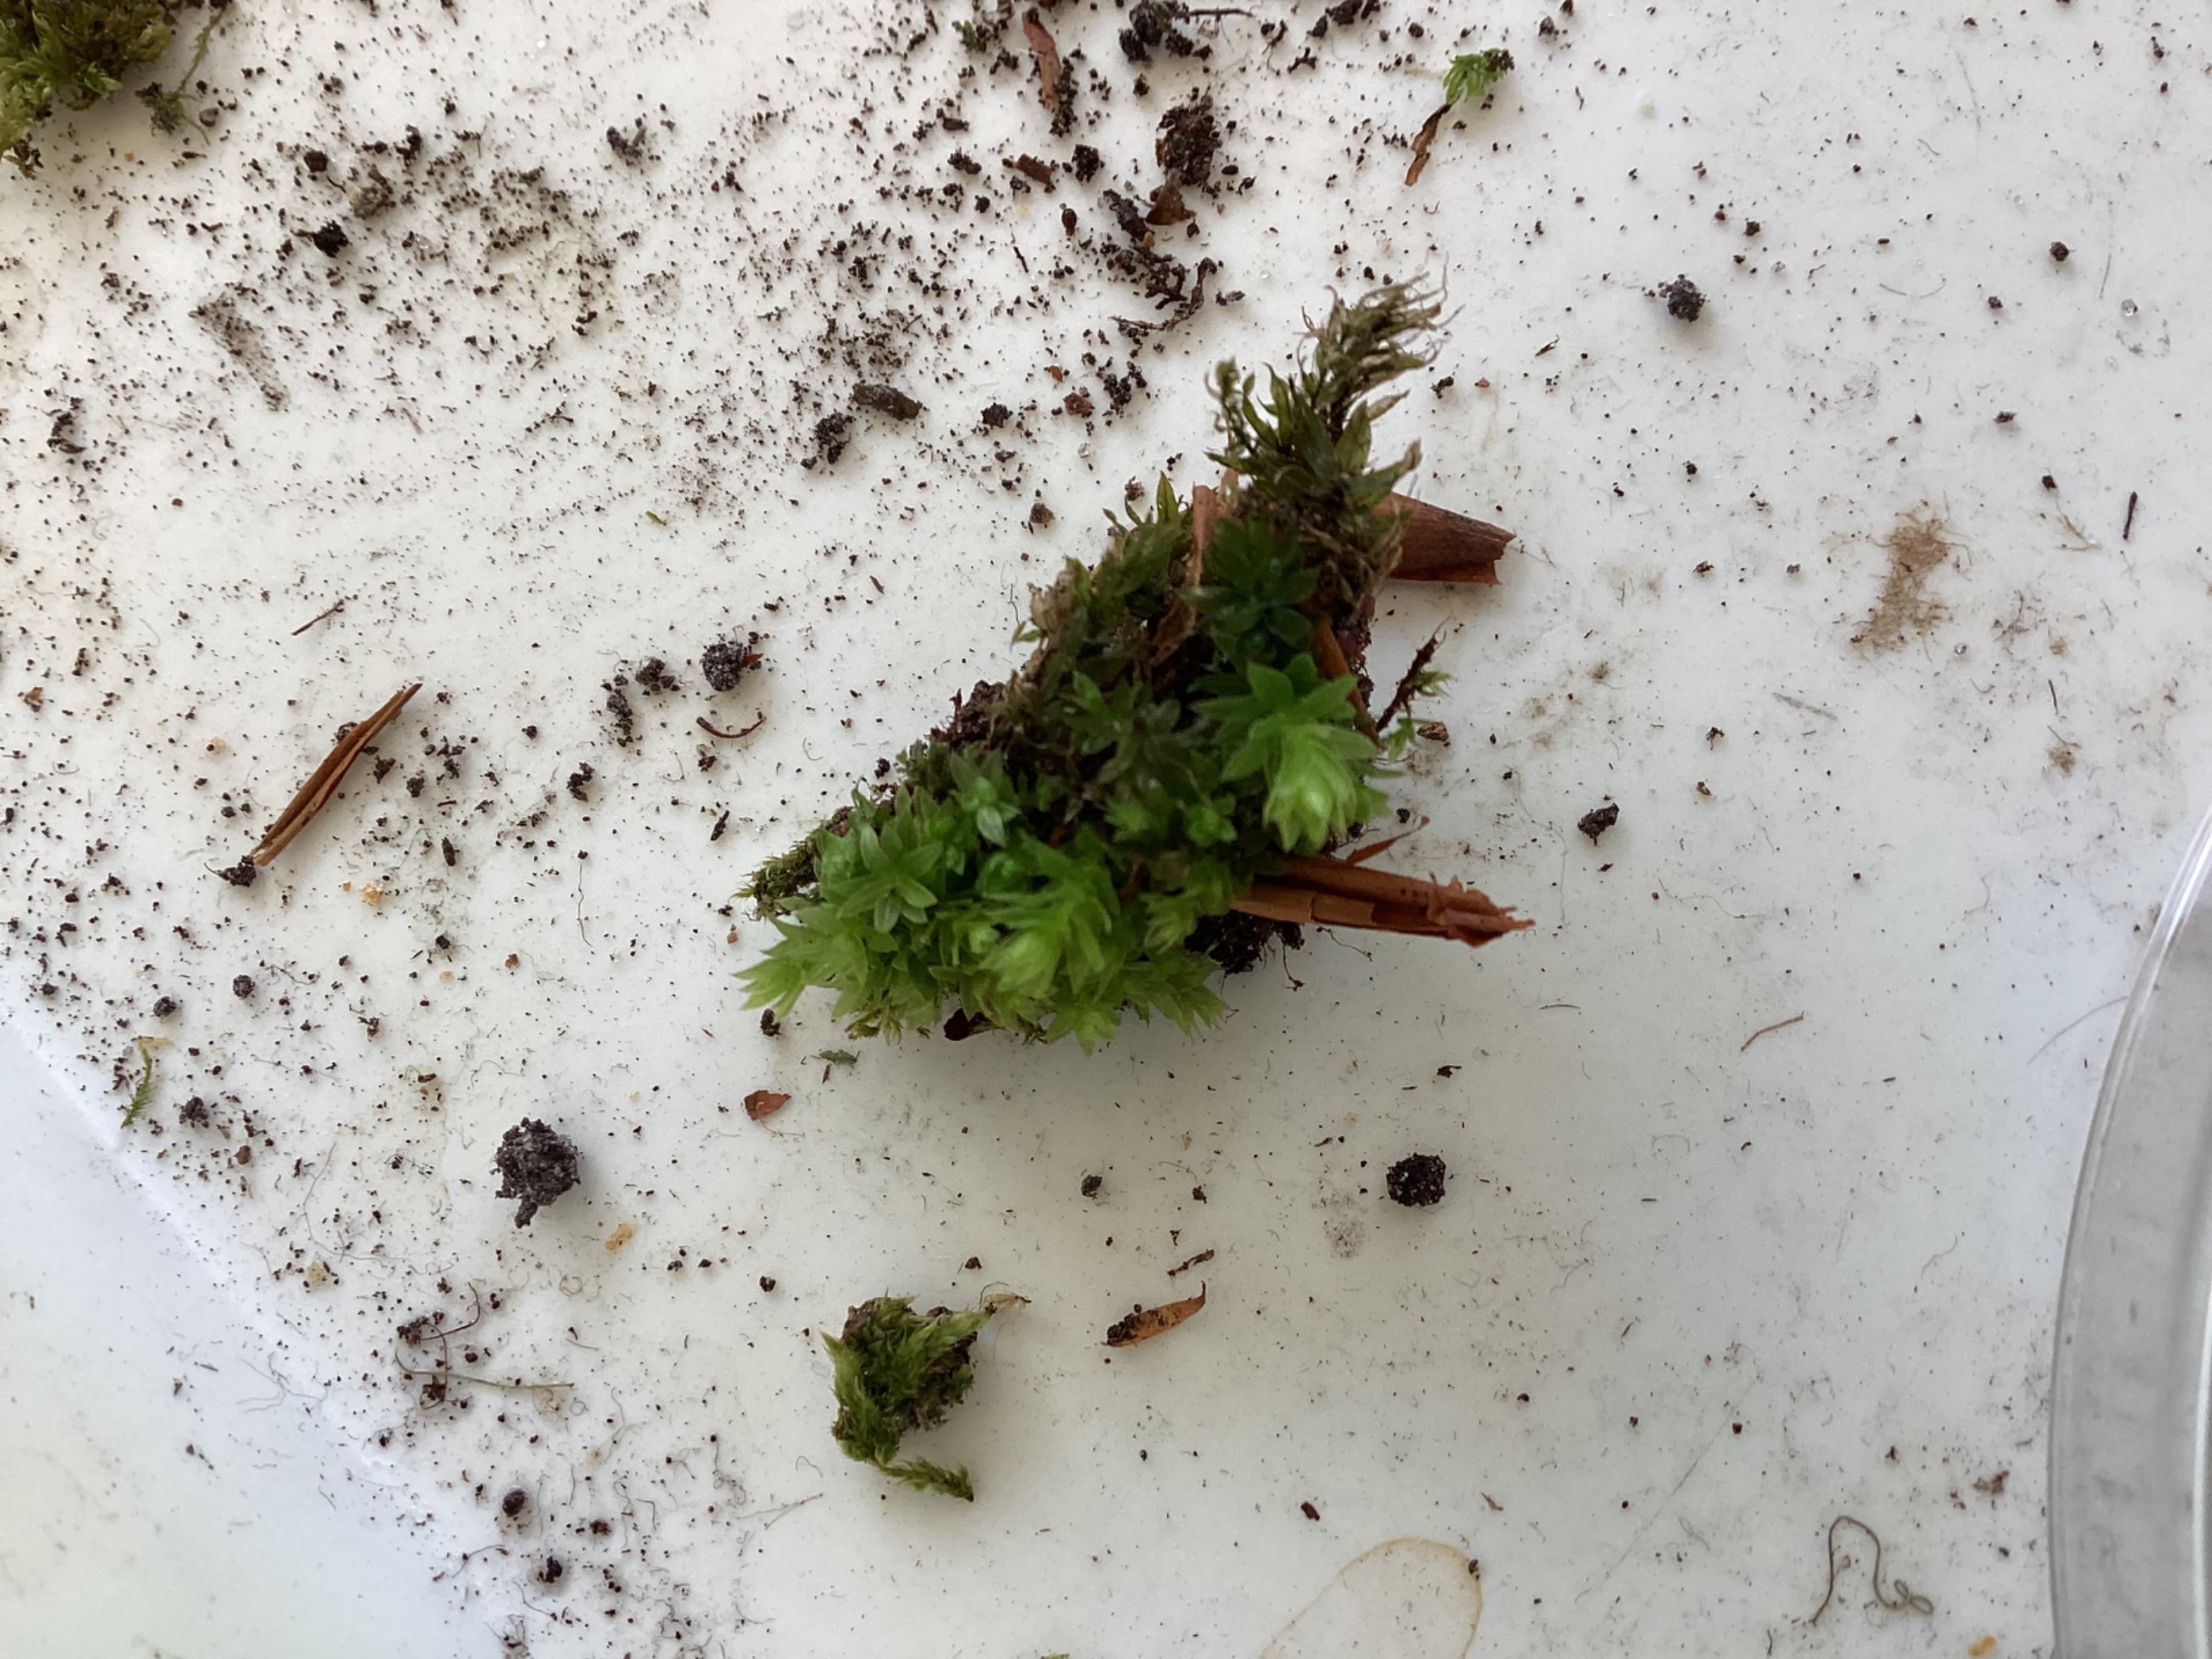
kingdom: Plantae
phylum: Bryophyta
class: Bryopsida
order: Bryales
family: Mniaceae
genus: Mnium
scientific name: Mnium hornum
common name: Brunfiltet stjernemos
